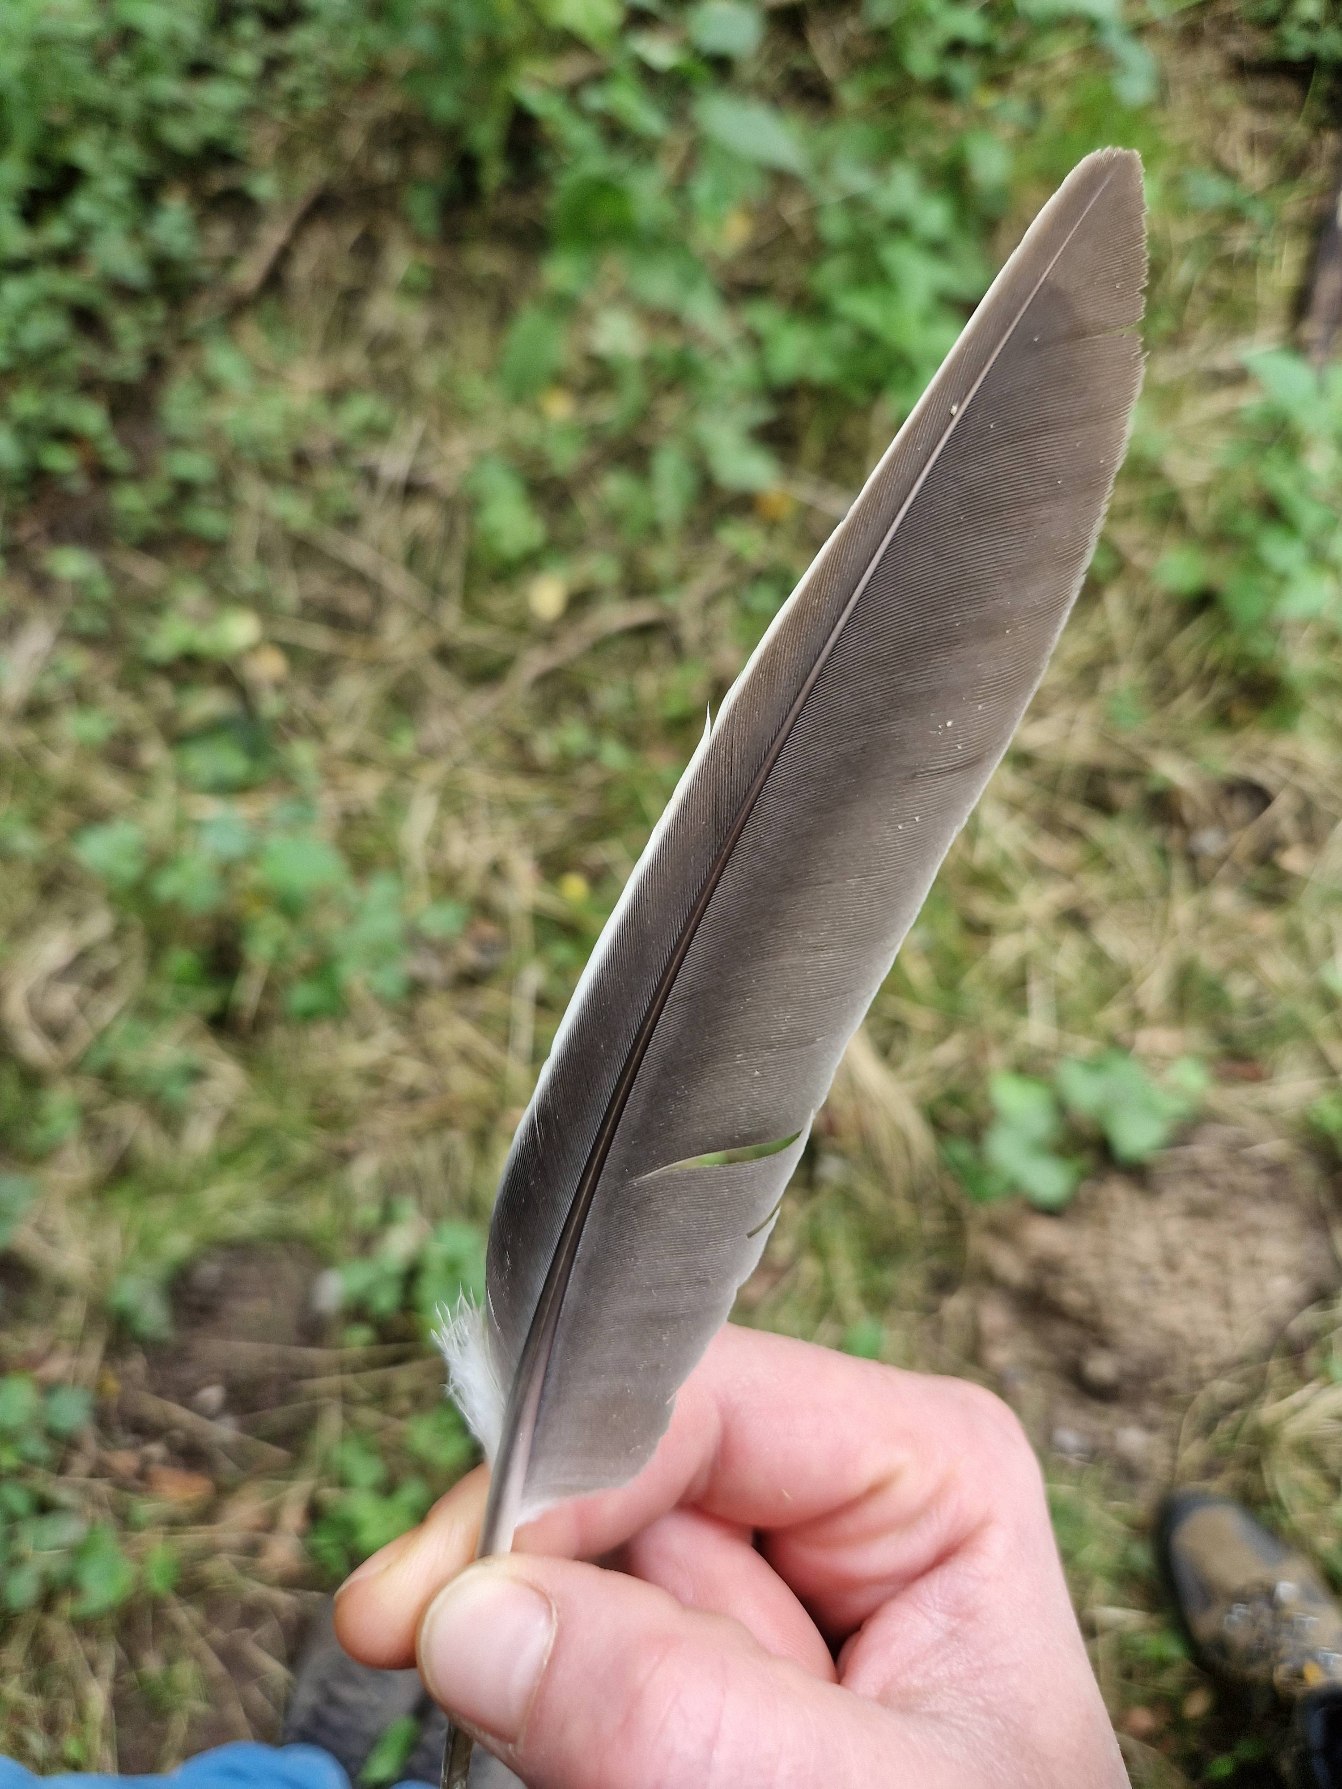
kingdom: Animalia
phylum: Chordata
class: Aves
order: Columbiformes
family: Columbidae
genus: Columba
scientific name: Columba palumbus
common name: Ringdue
